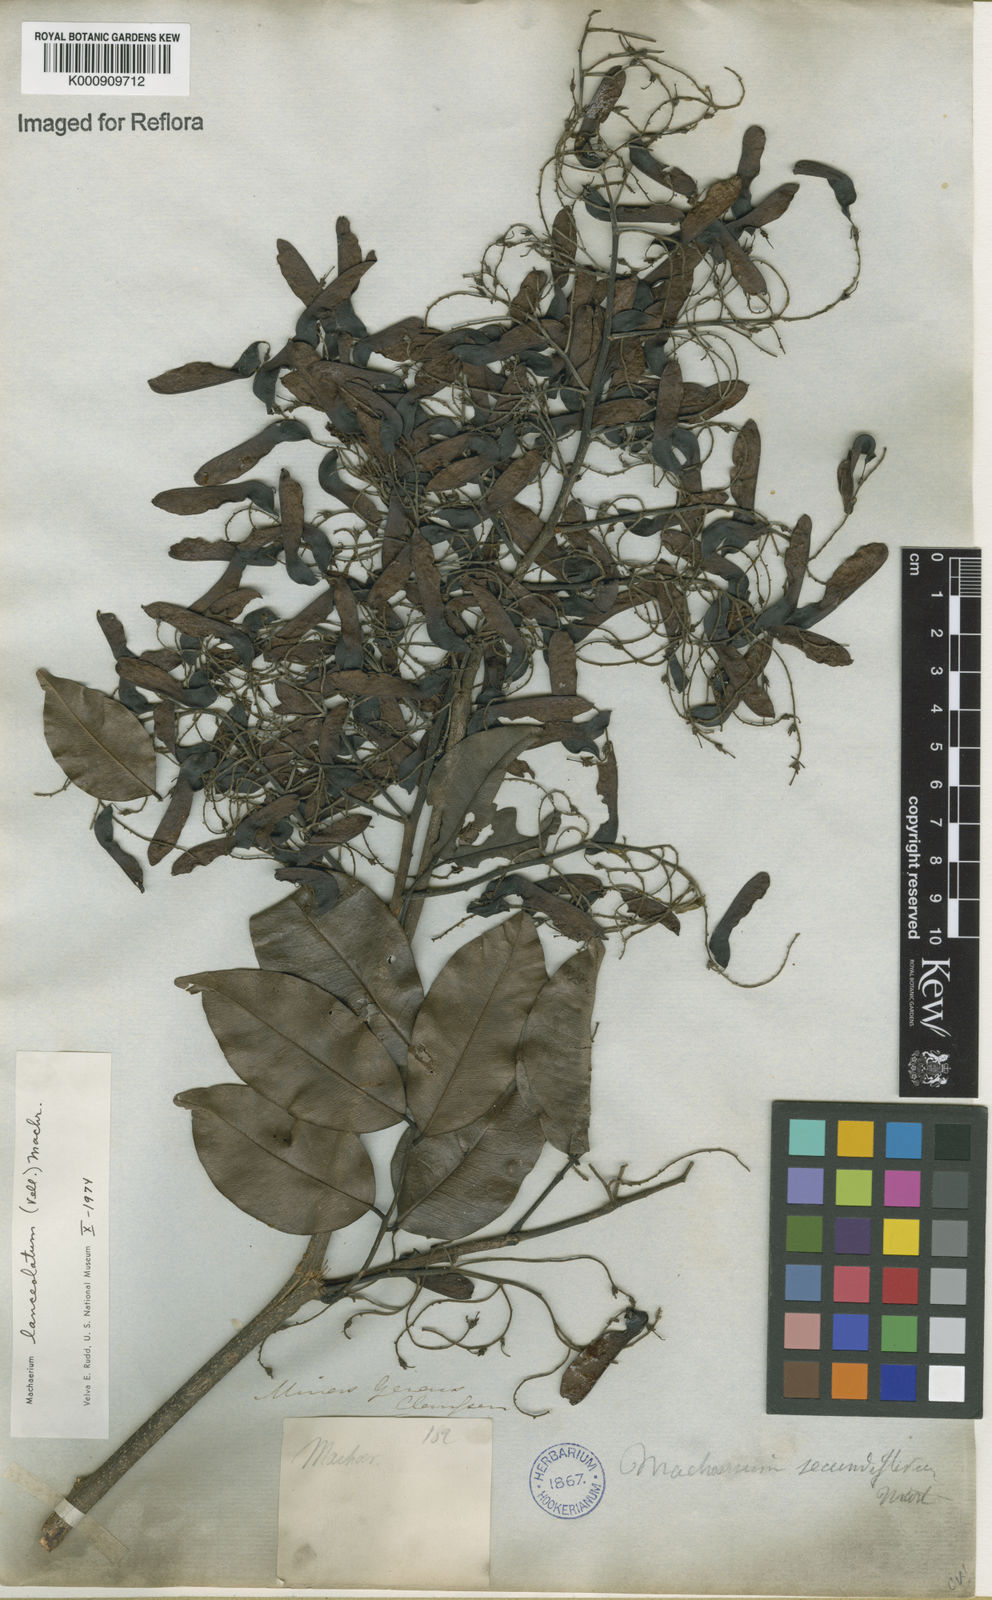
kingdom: Plantae
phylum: Tracheophyta
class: Magnoliopsida
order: Fabales
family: Fabaceae
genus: Machaerium
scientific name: Machaerium lanceolatum
